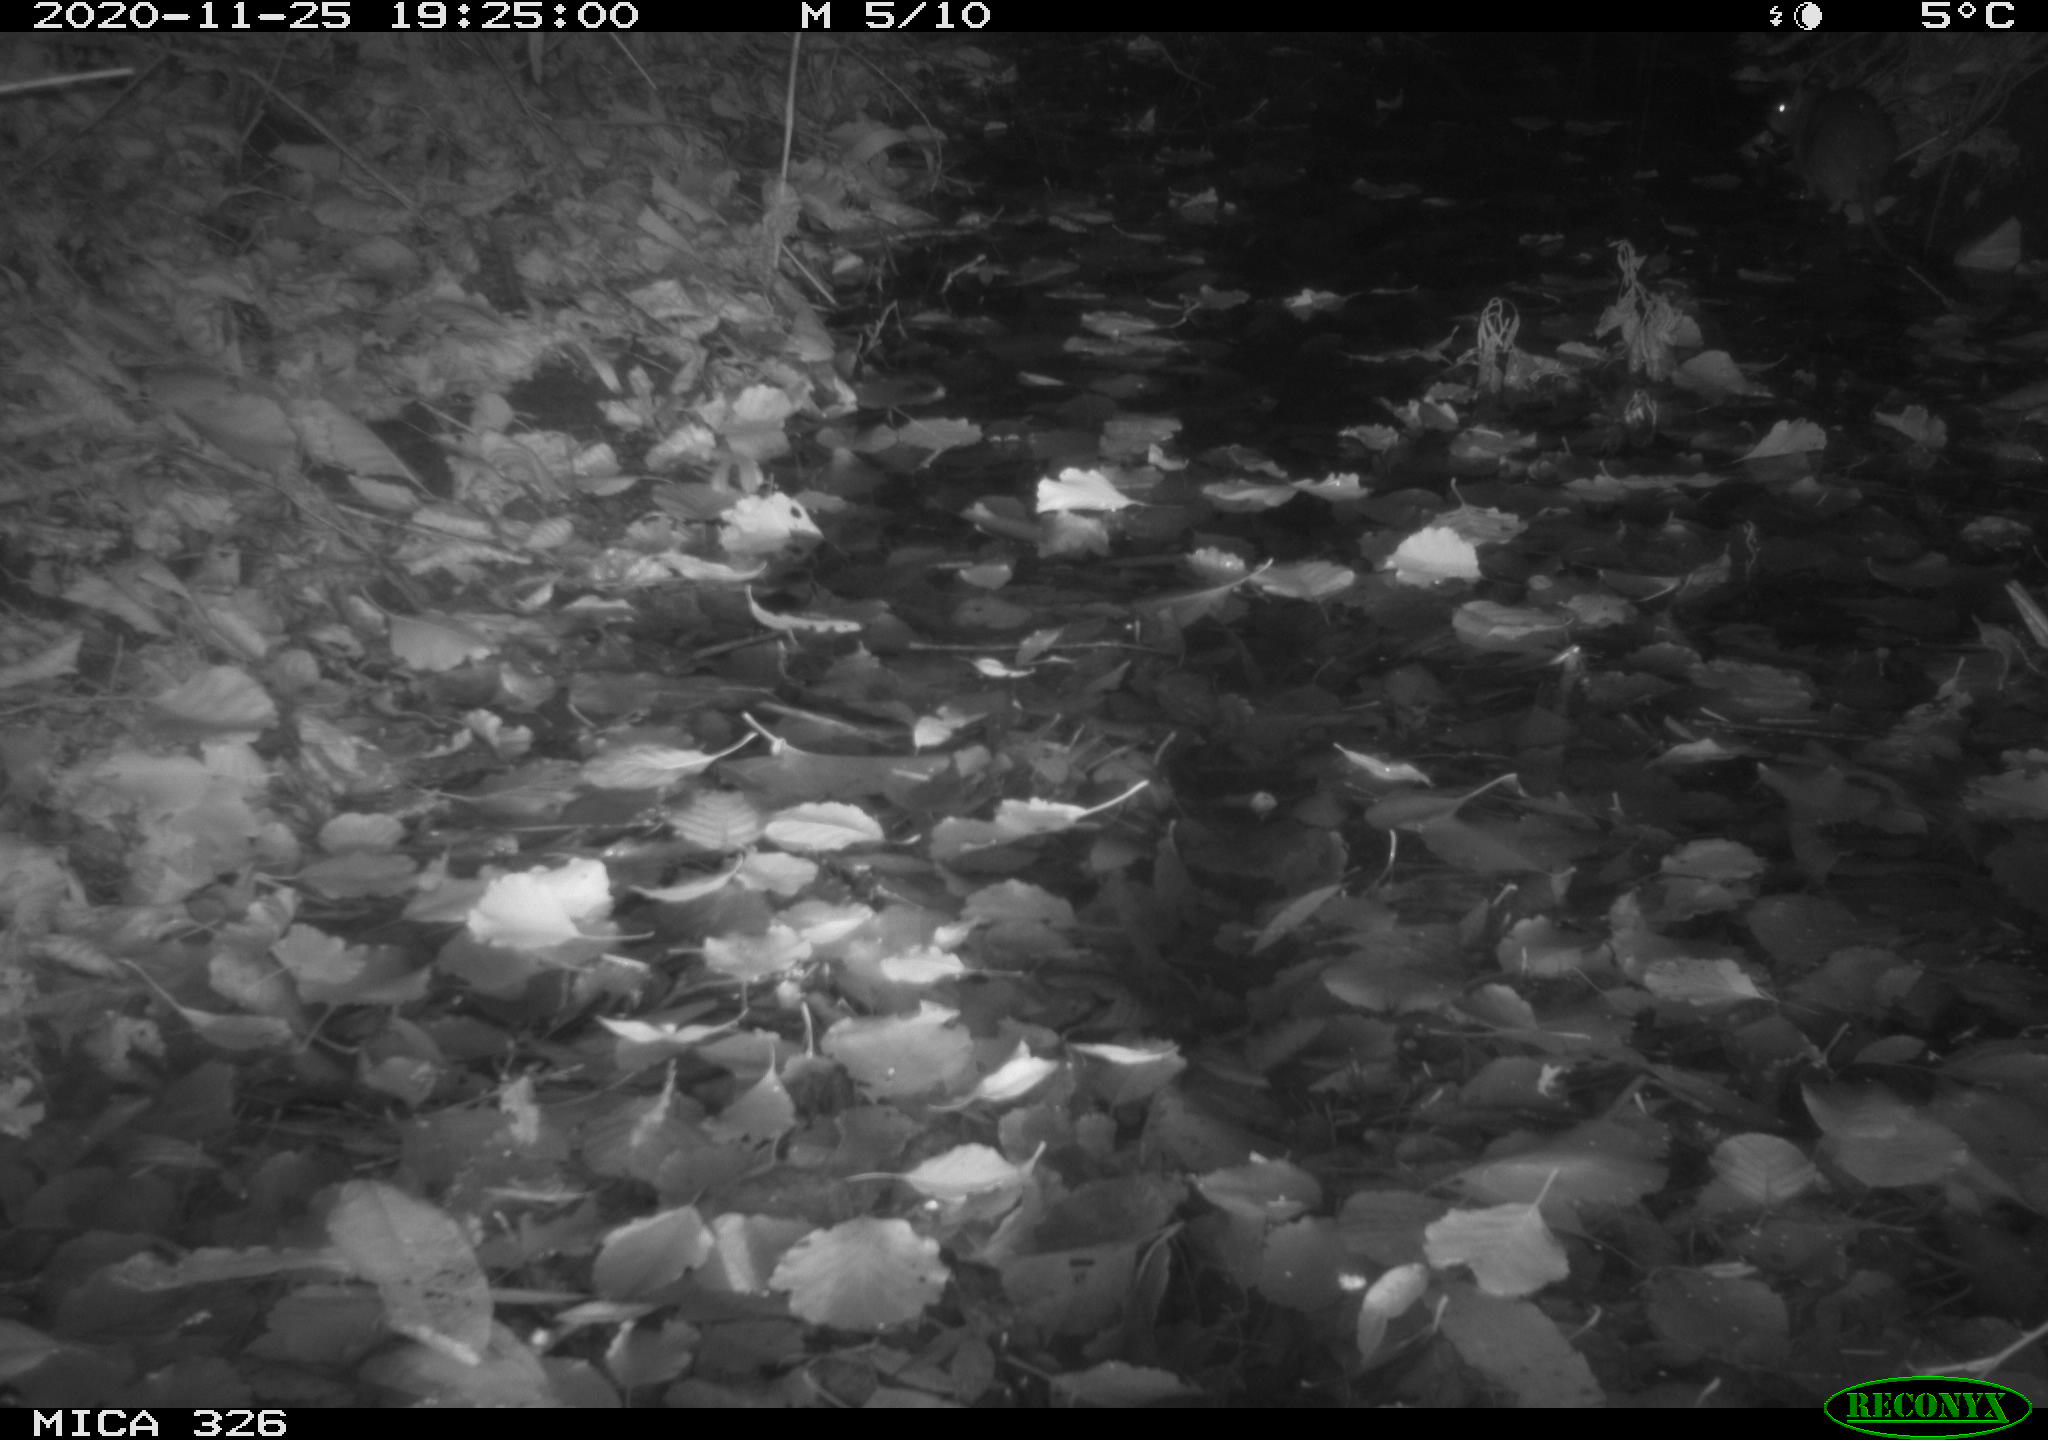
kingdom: Animalia
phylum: Chordata
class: Mammalia
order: Rodentia
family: Muridae
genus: Rattus
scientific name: Rattus norvegicus
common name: Brown rat
